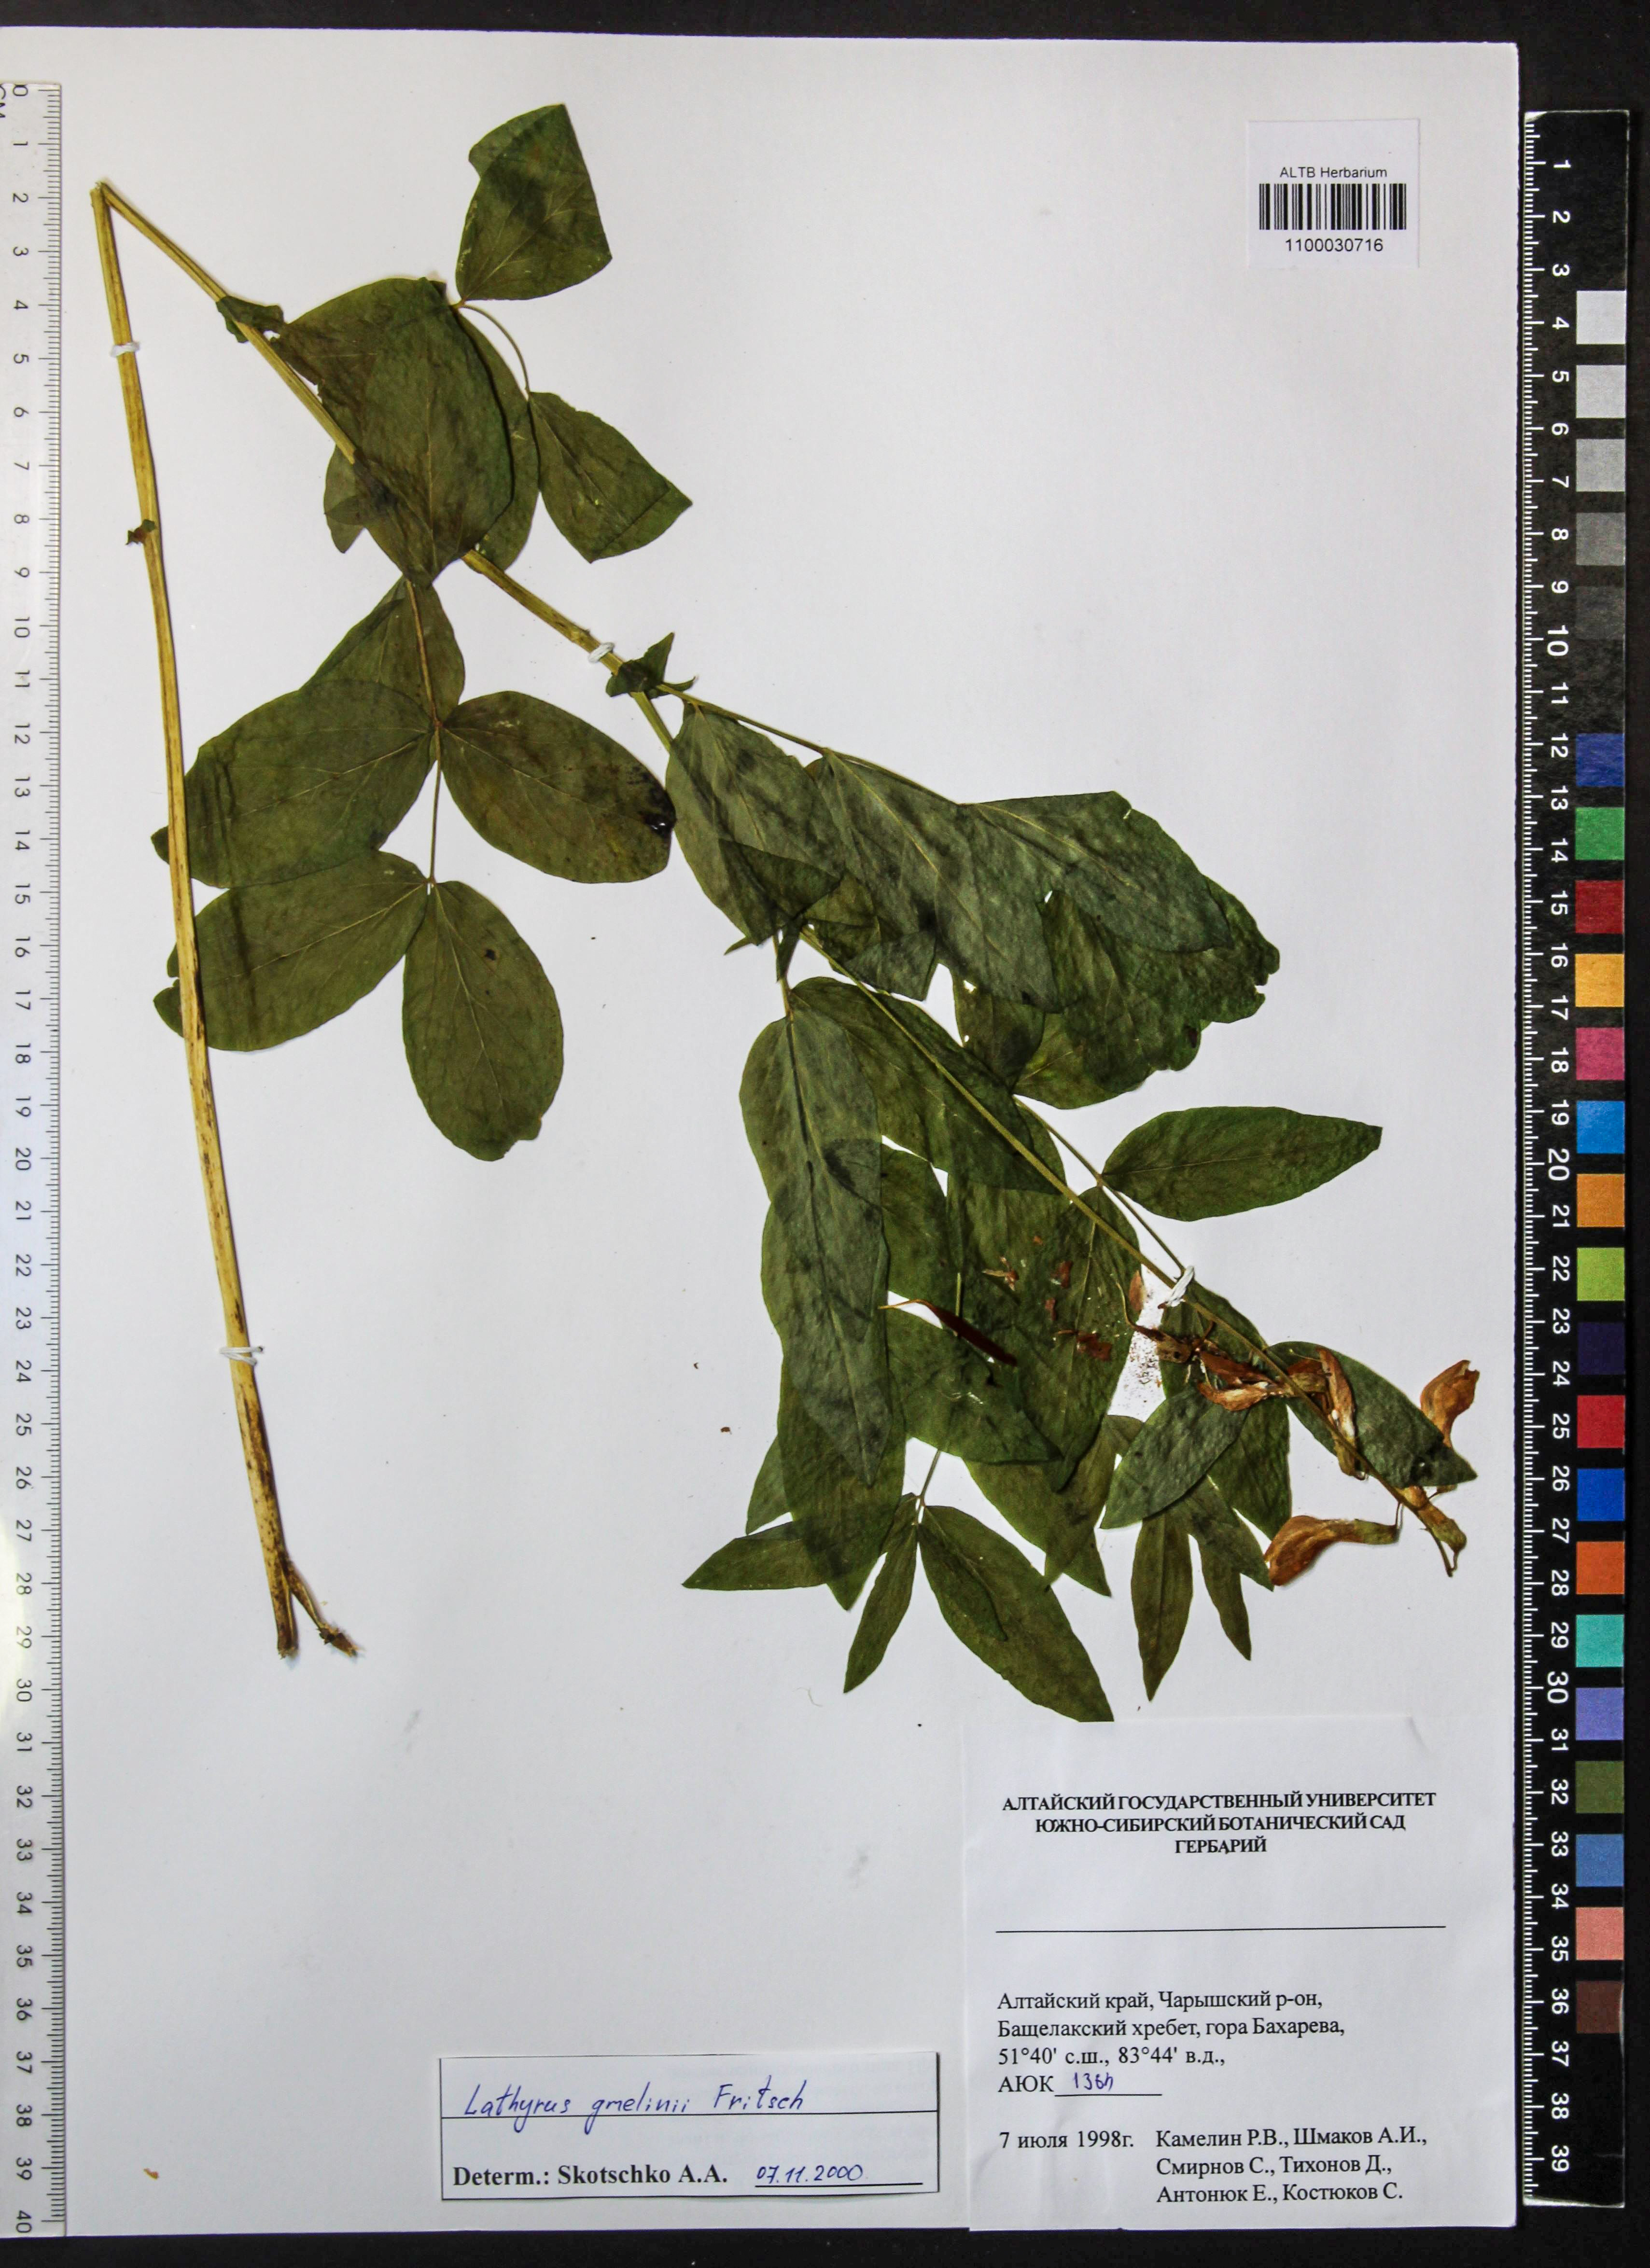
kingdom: Plantae
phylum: Tracheophyta
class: Magnoliopsida
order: Fabales
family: Fabaceae
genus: Lathyrus
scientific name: Lathyrus gmelinii
